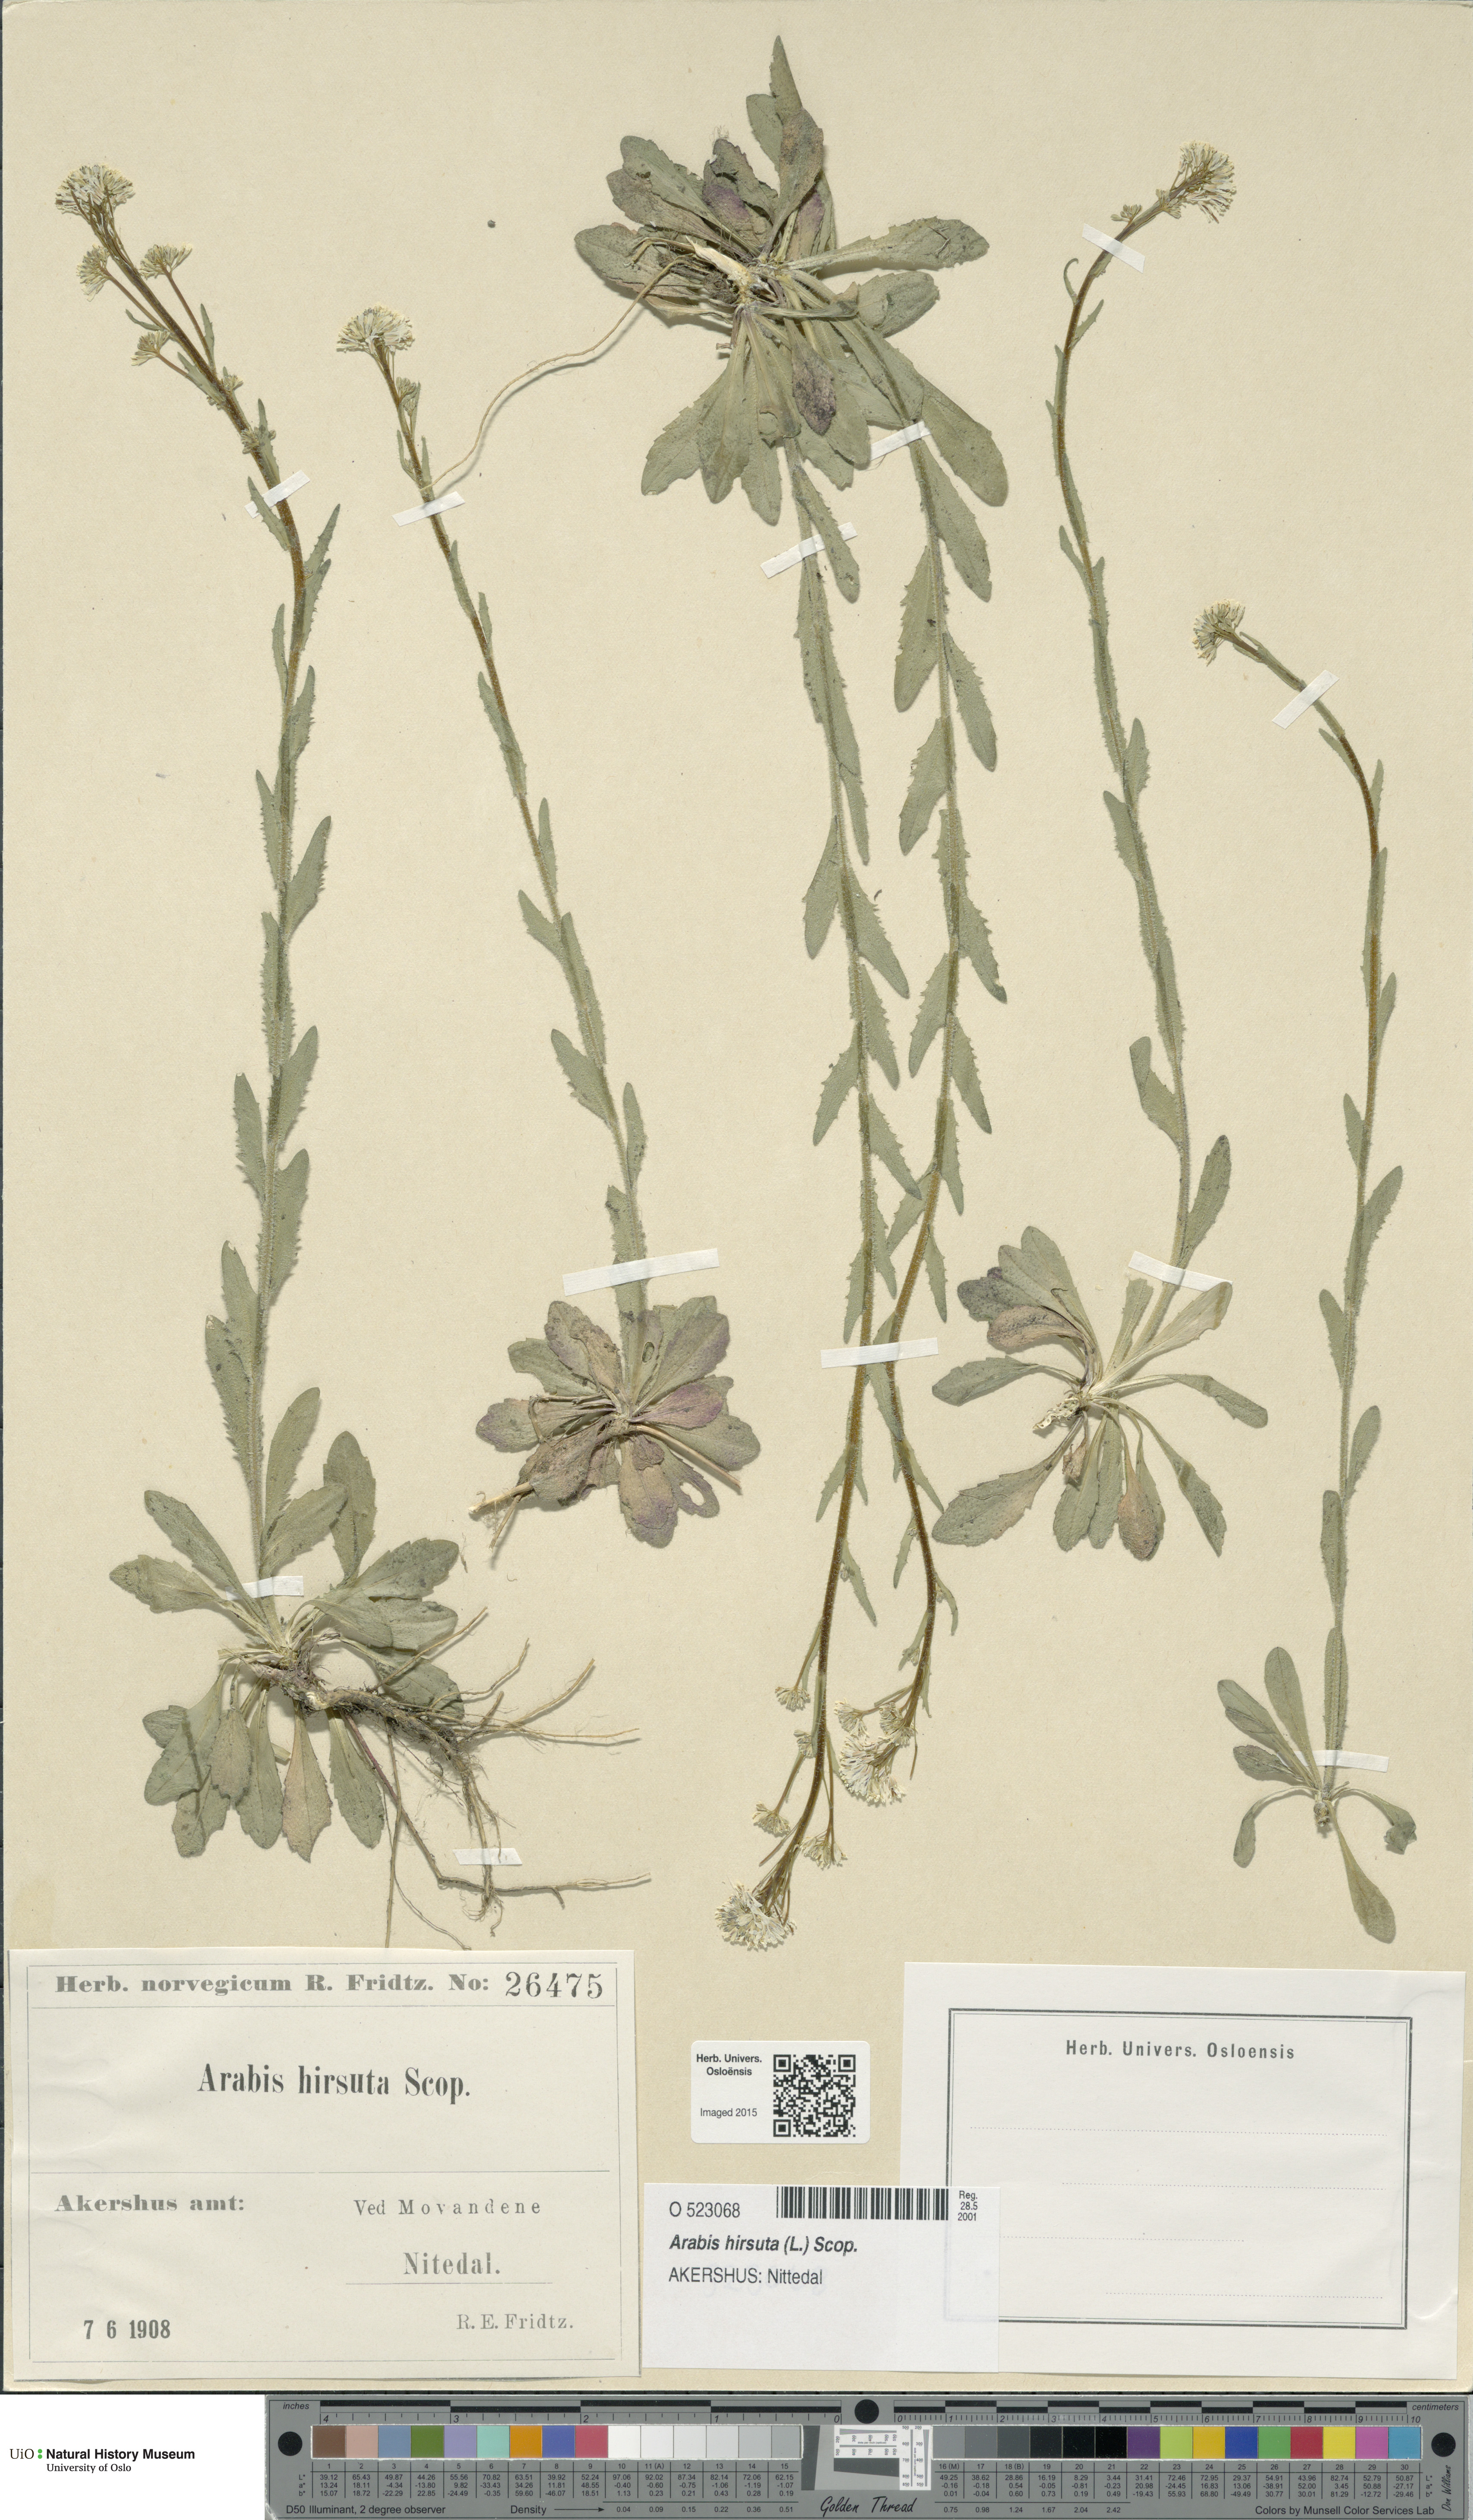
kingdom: Plantae
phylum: Tracheophyta
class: Magnoliopsida
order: Brassicales
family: Brassicaceae
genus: Arabis
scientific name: Arabis hirsuta
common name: Hairy rock-cress
